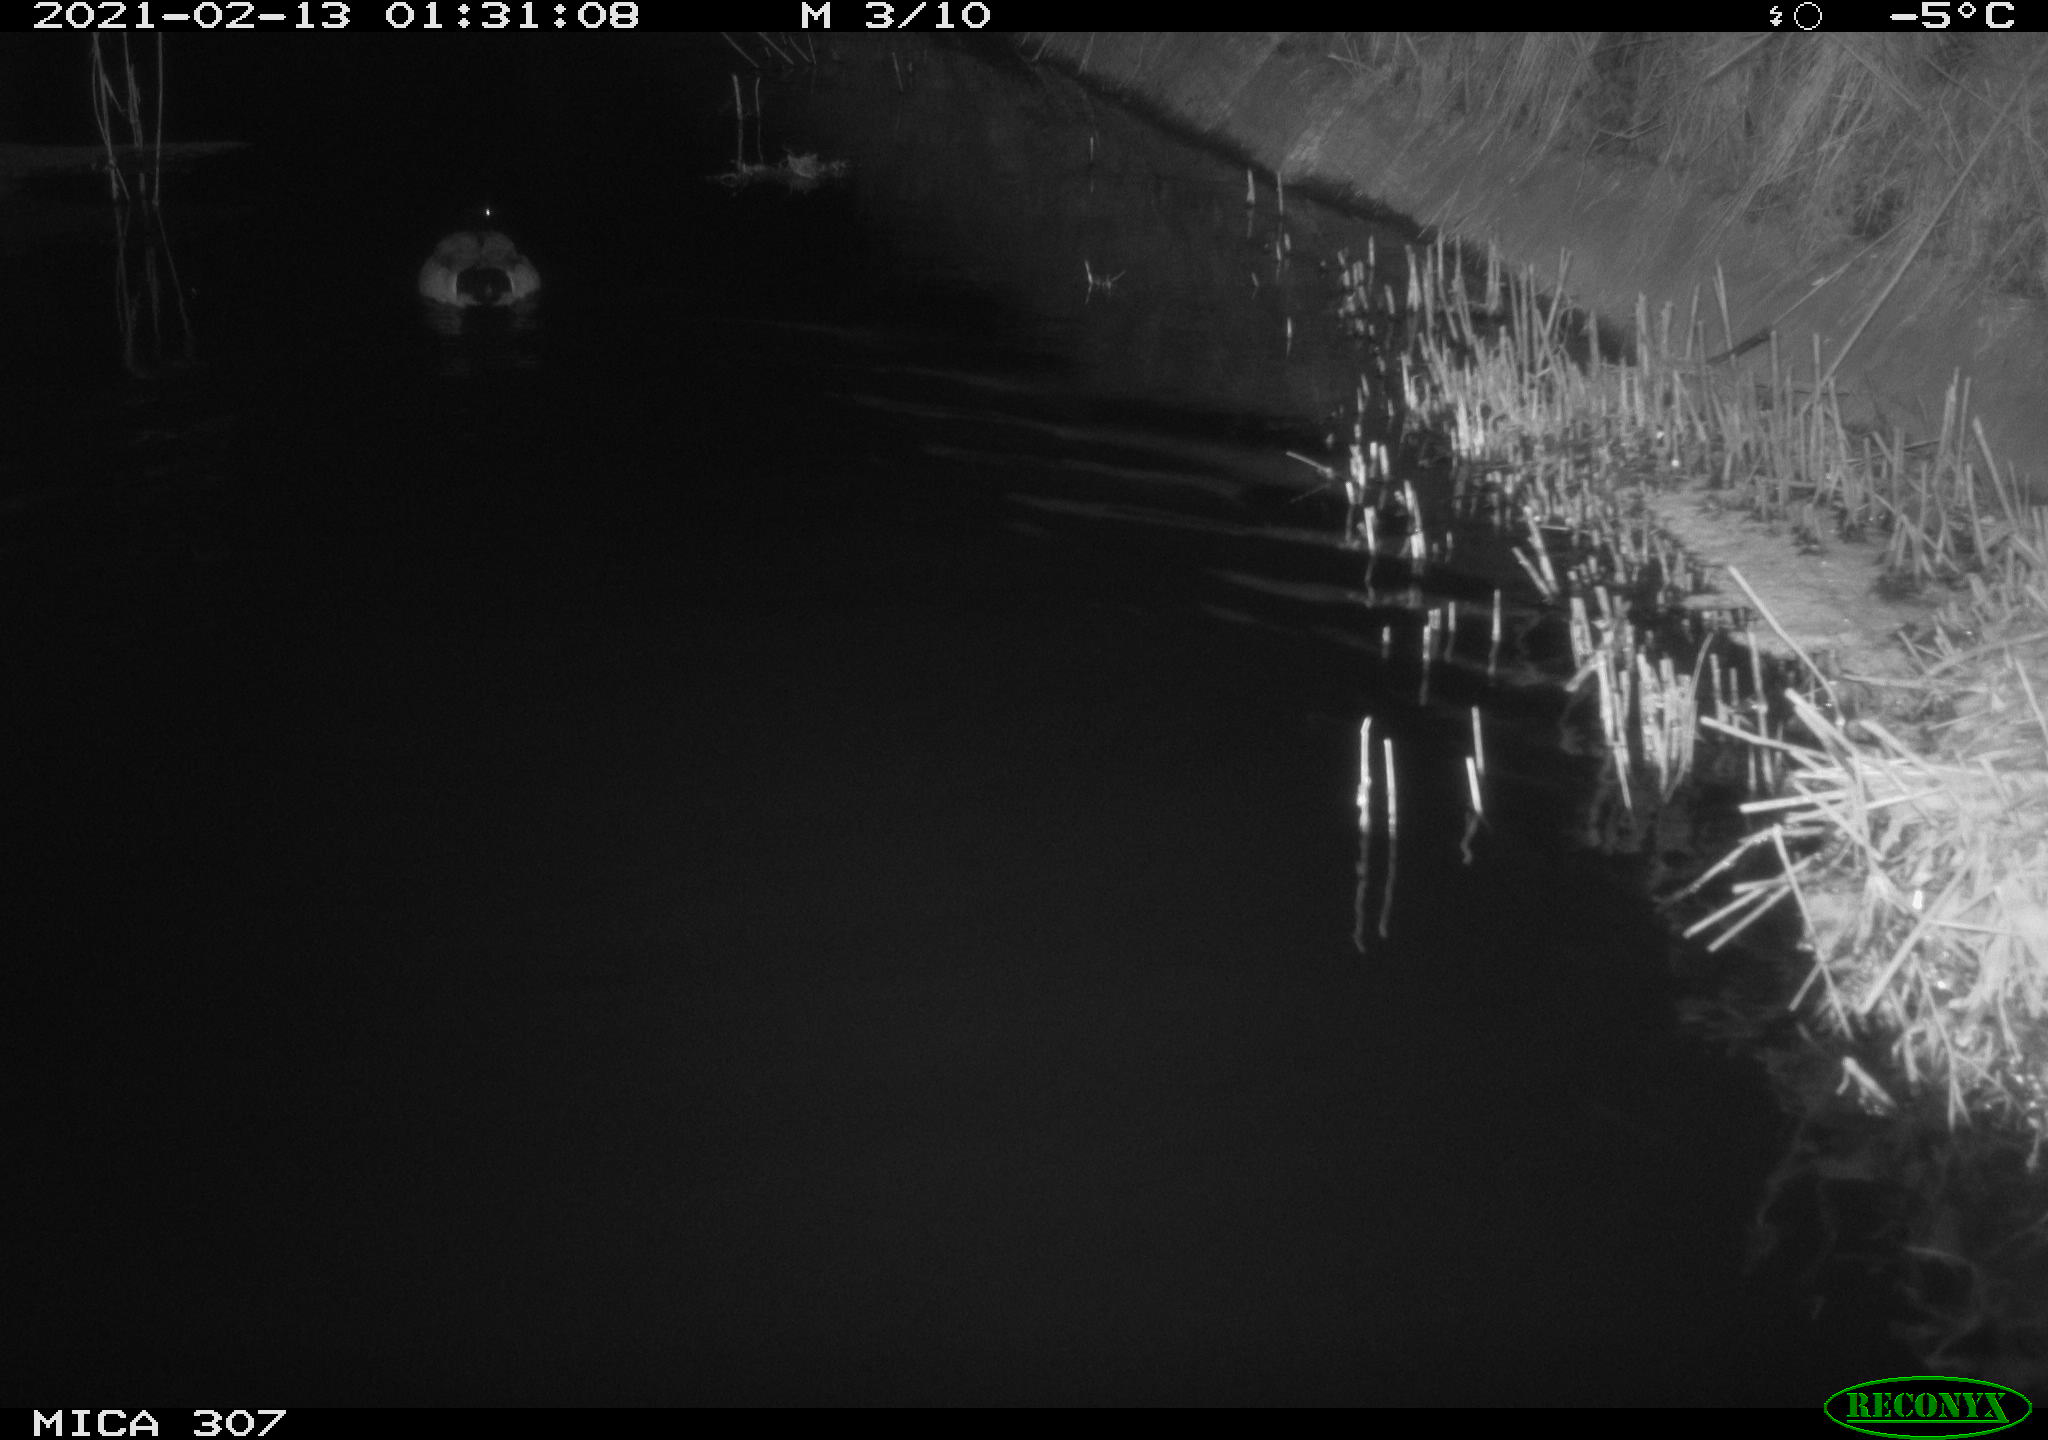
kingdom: Animalia
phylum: Chordata
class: Aves
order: Anseriformes
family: Anatidae
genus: Anas
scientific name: Anas platyrhynchos
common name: Mallard
